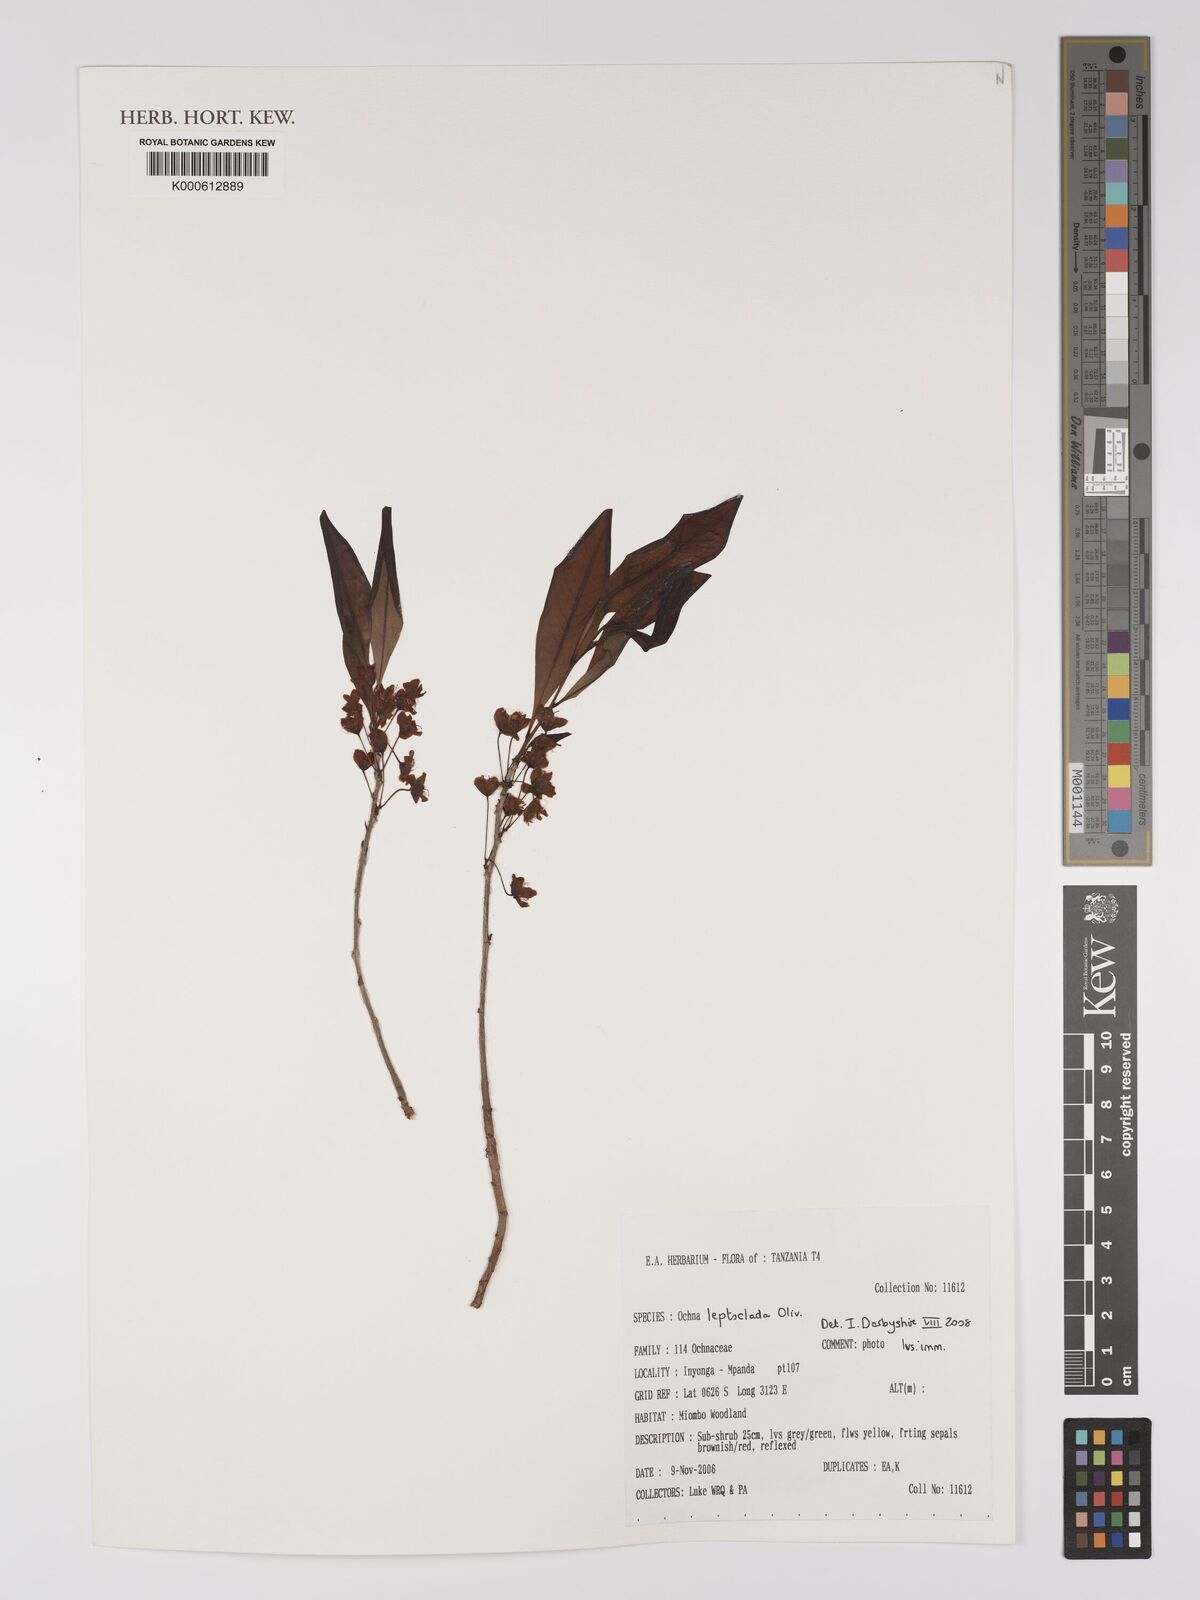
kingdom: Plantae
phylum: Tracheophyta
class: Magnoliopsida
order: Malpighiales
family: Ochnaceae
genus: Ochna
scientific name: Ochna leptoclada
